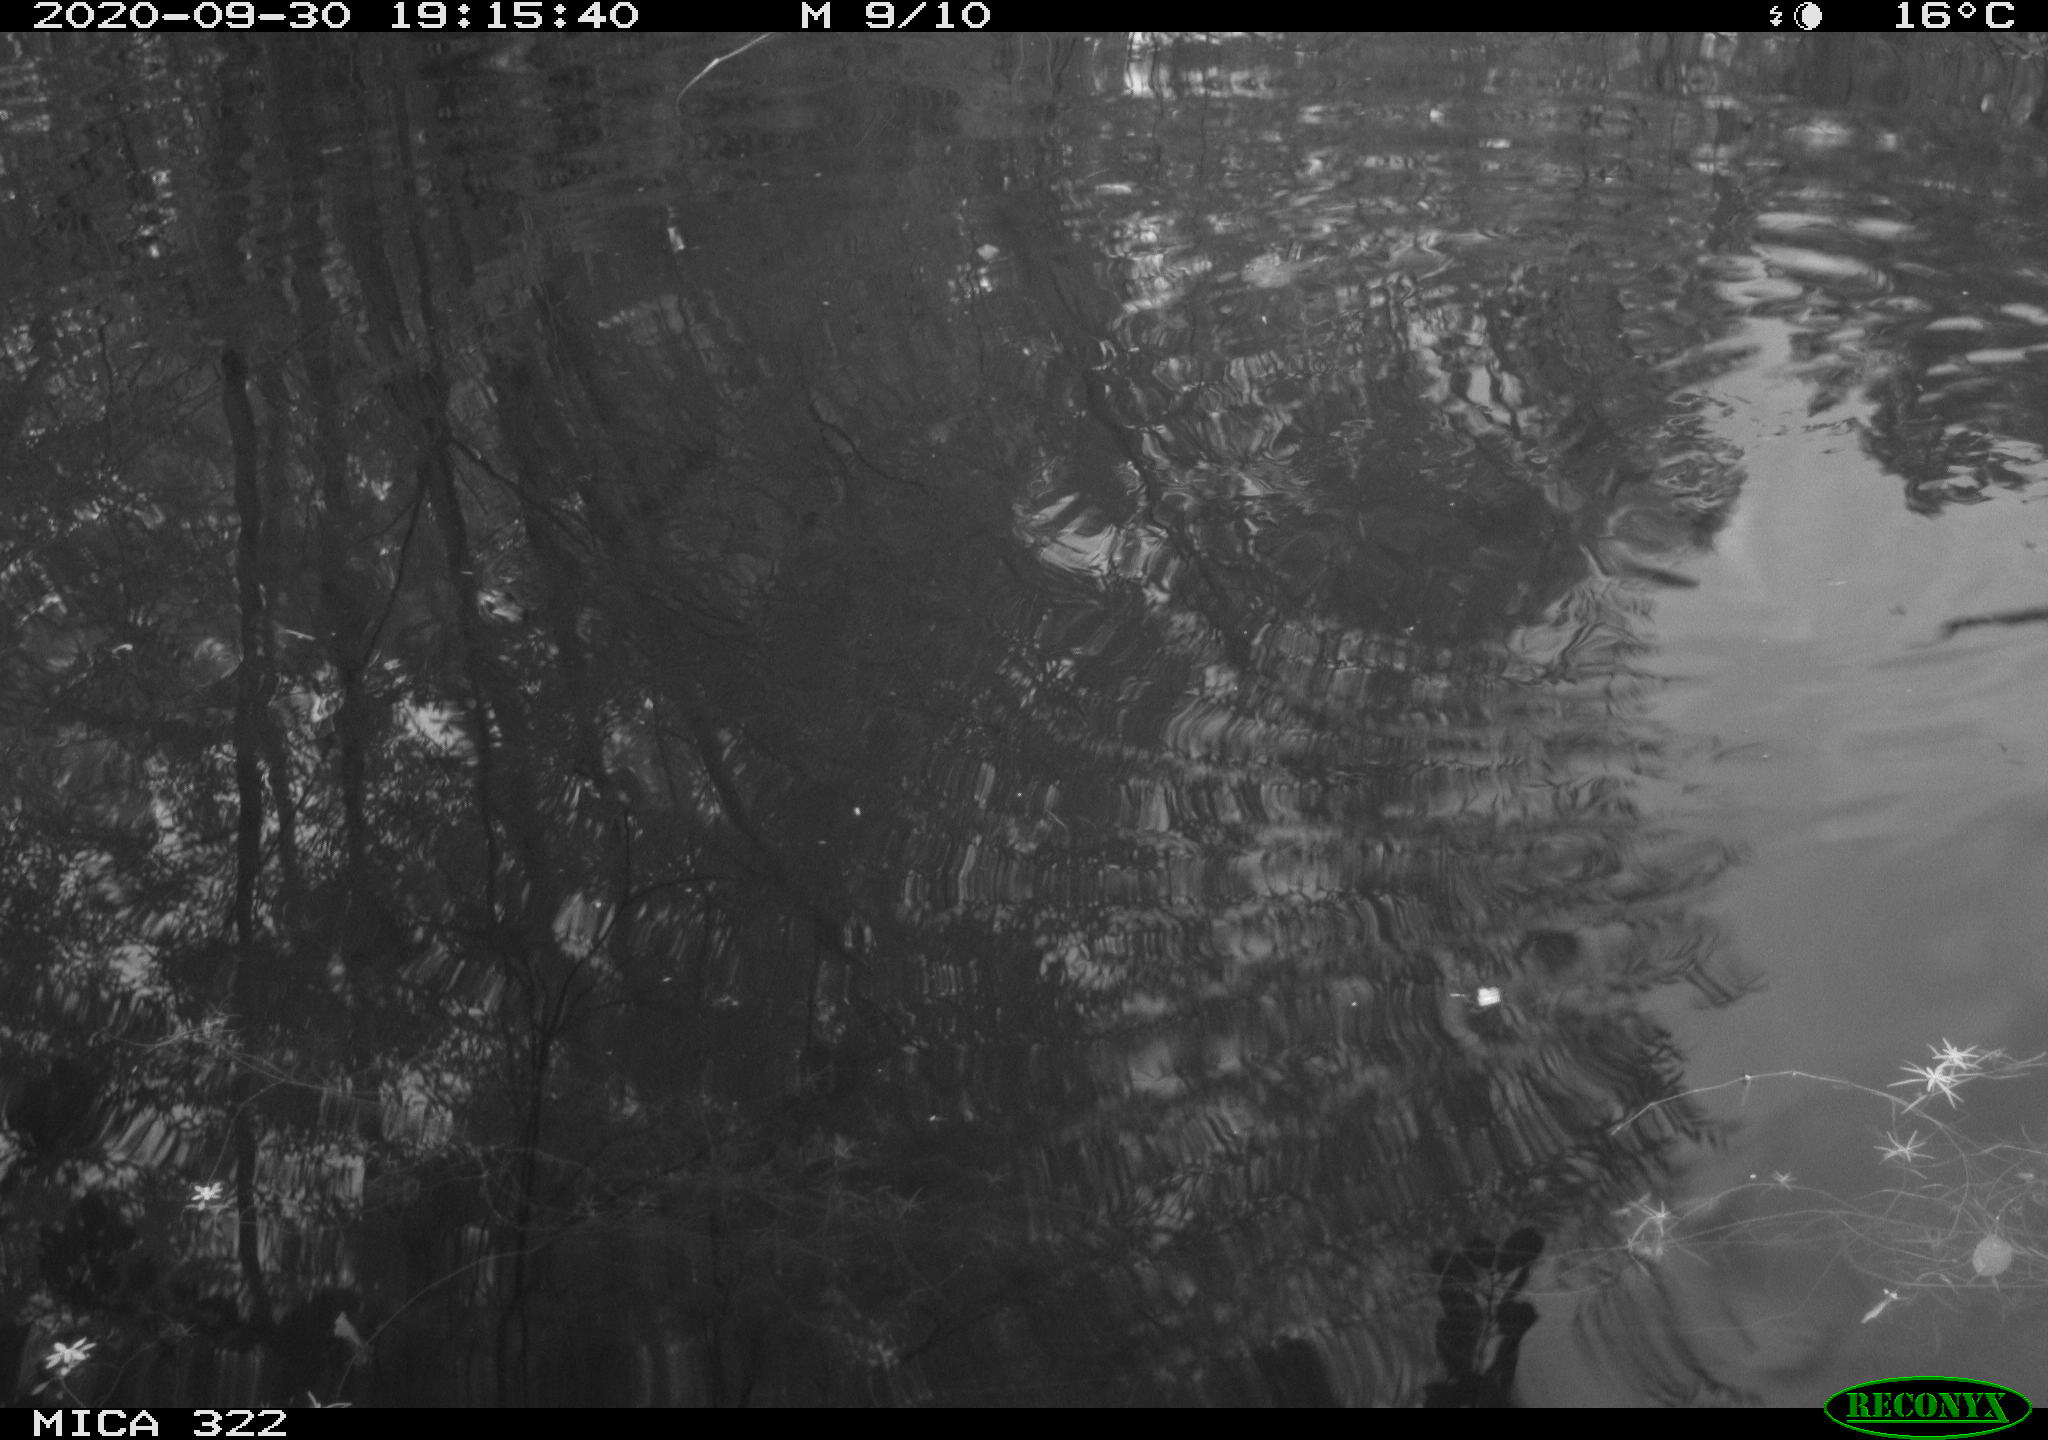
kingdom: Animalia
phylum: Chordata
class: Aves
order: Gruiformes
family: Rallidae
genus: Gallinula
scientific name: Gallinula chloropus
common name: Common moorhen
